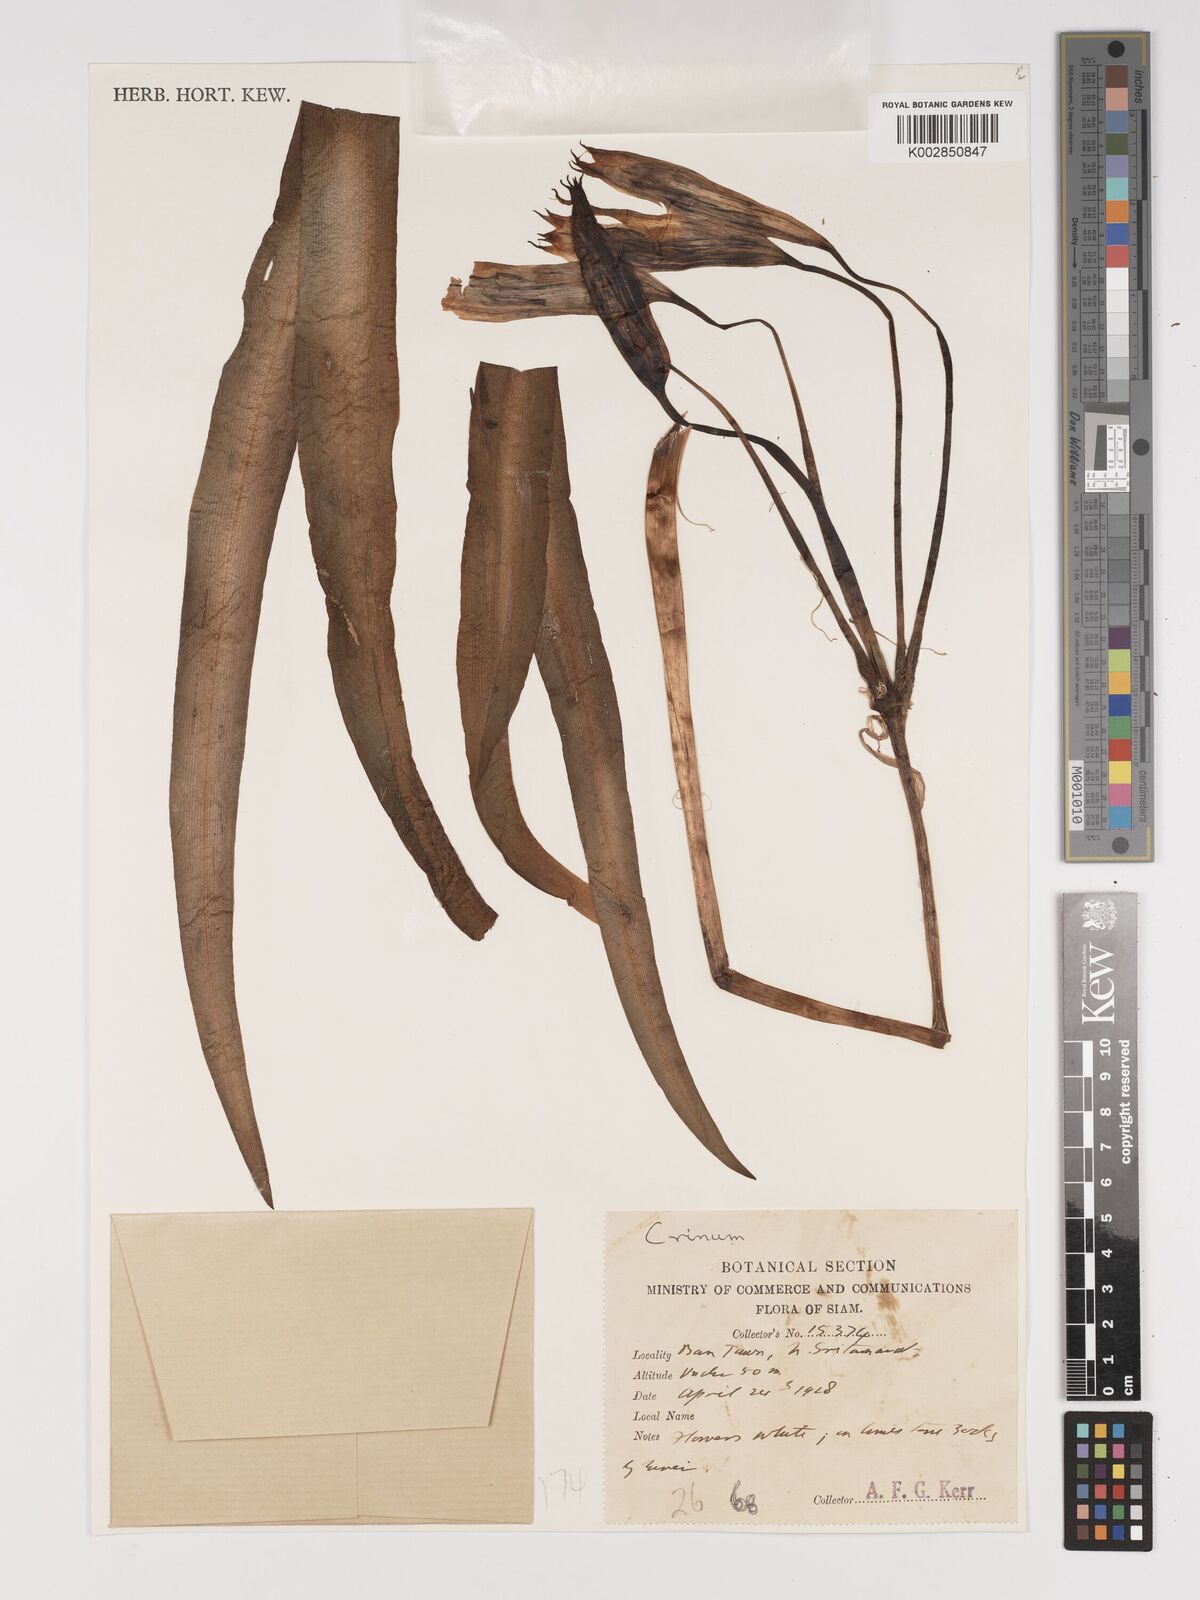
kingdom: Plantae
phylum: Tracheophyta
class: Liliopsida
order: Asparagales
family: Amaryllidaceae
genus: Crinum
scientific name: Crinum
